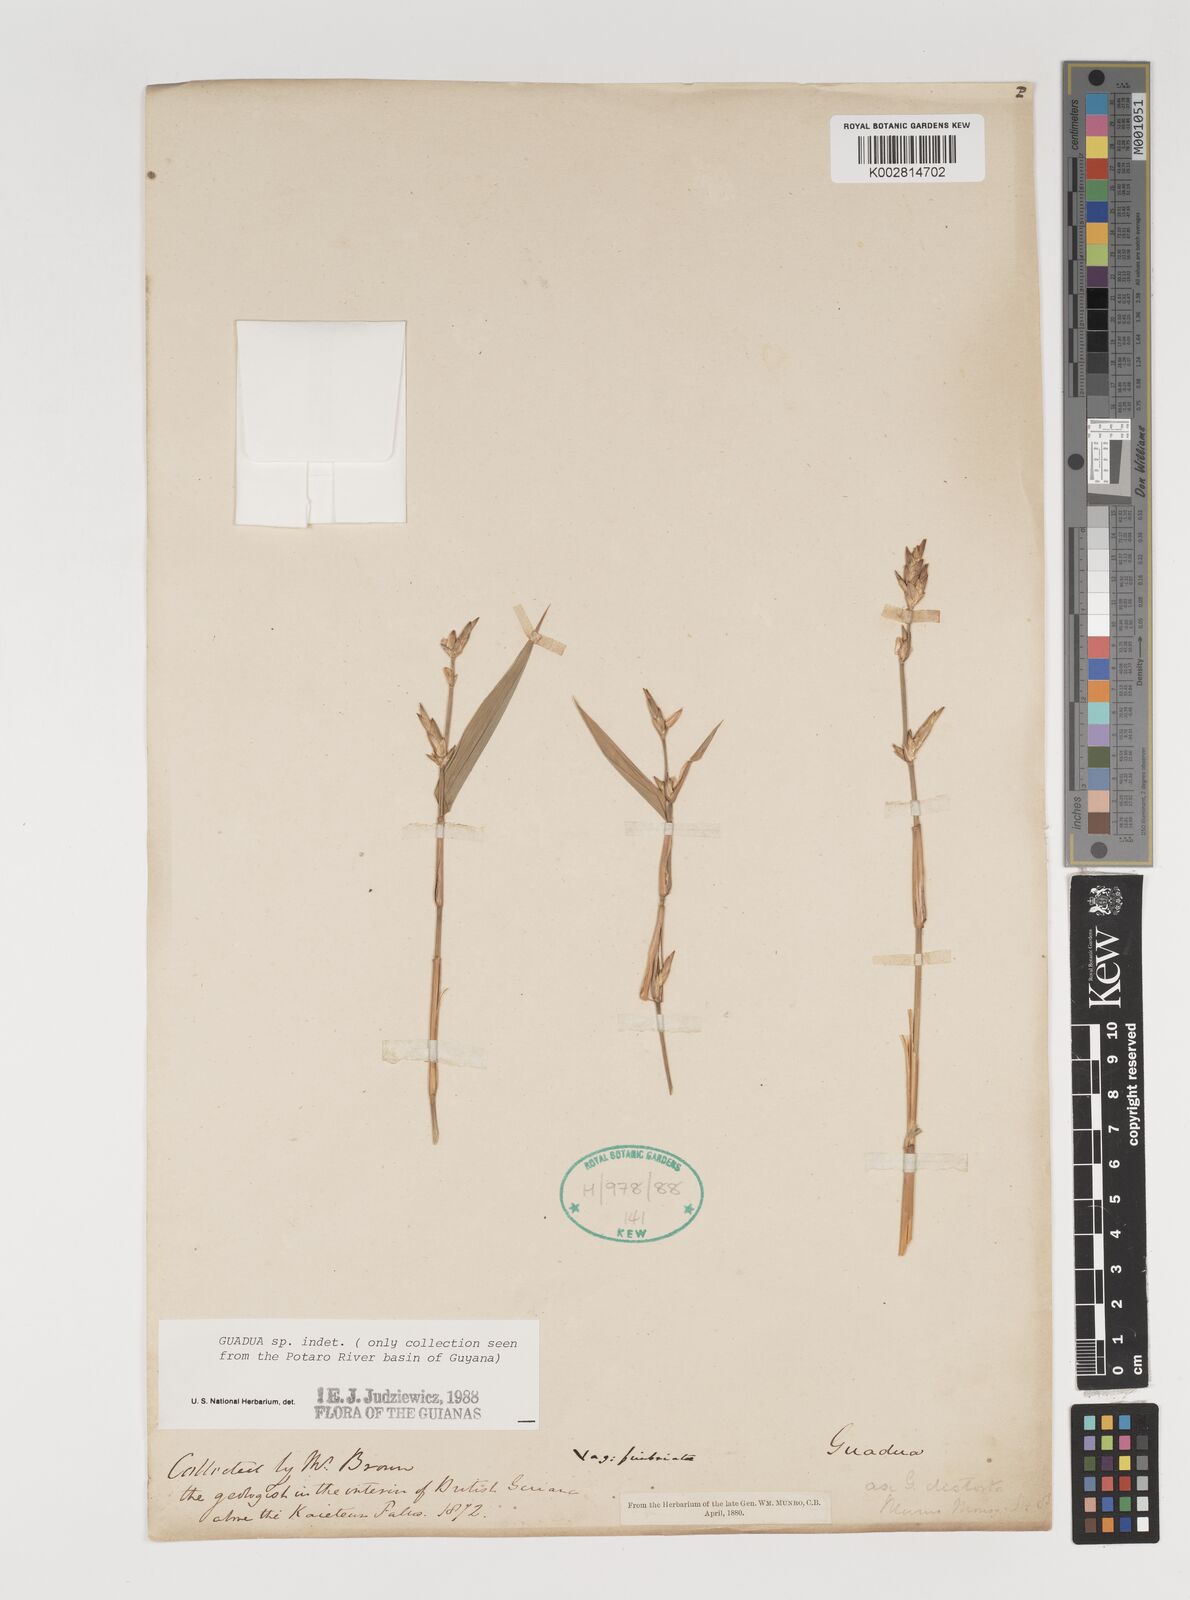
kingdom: Plantae
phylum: Tracheophyta
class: Liliopsida
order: Poales
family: Poaceae
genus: Guadua
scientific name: Guadua
